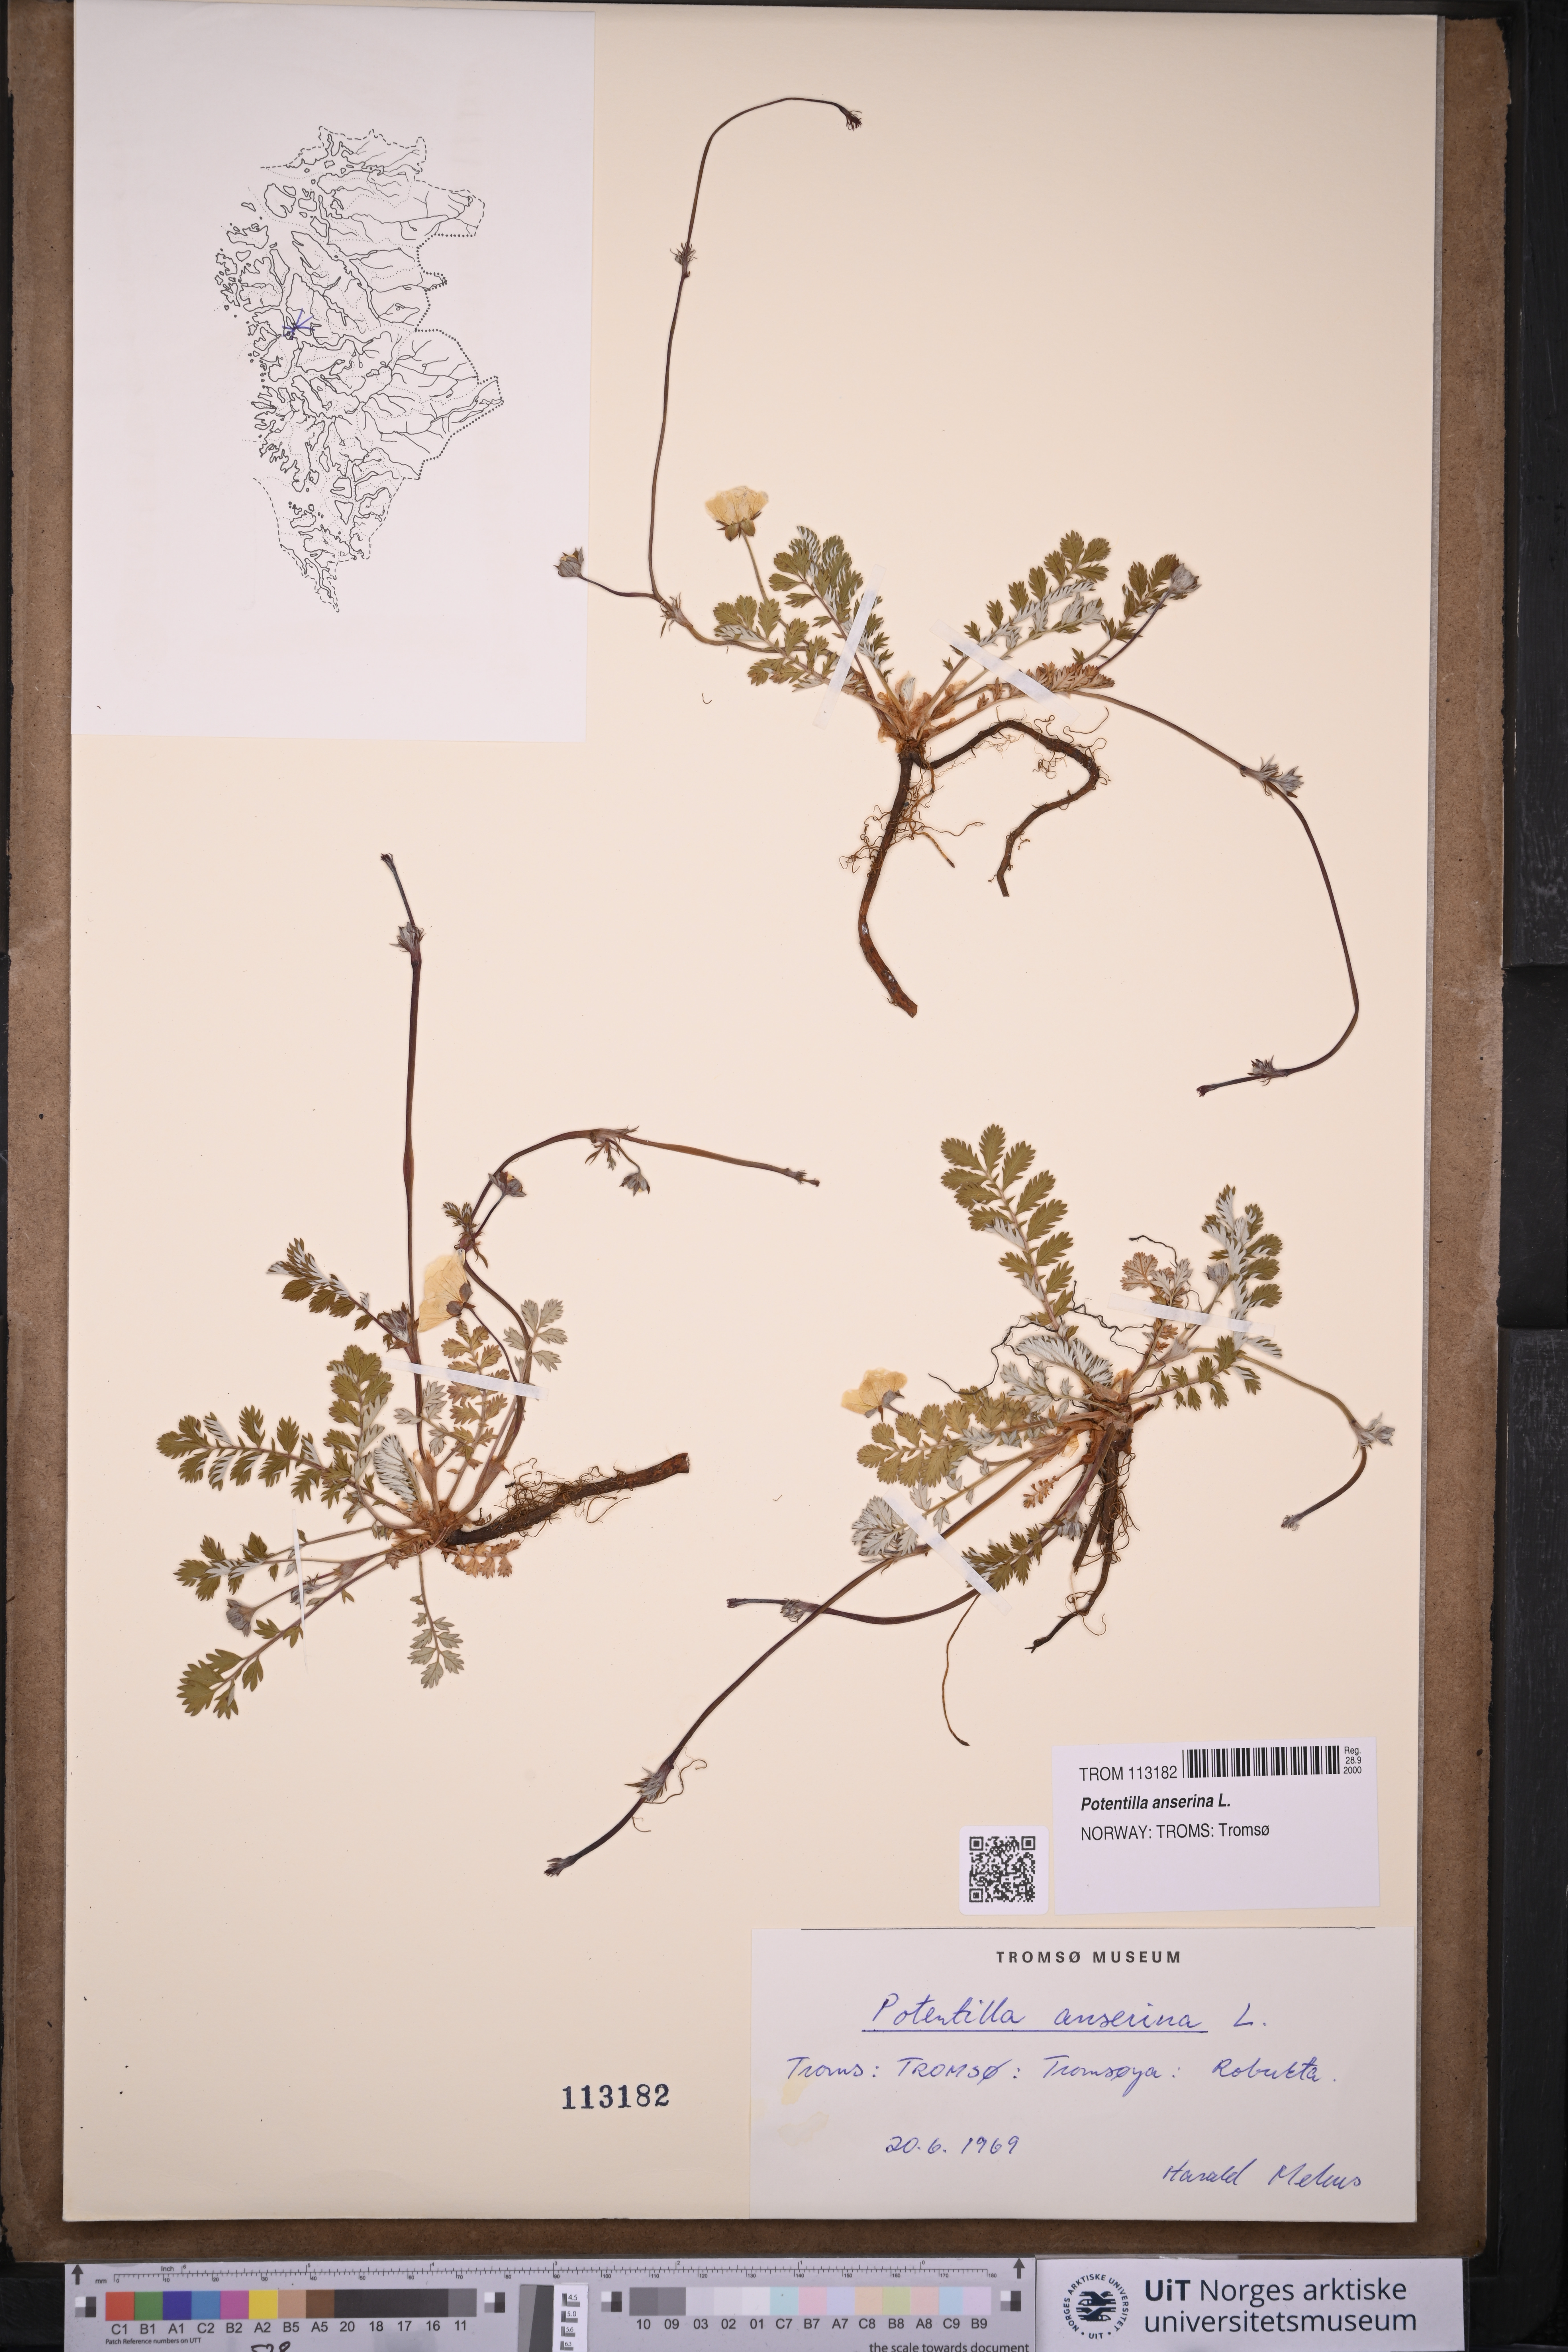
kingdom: Plantae
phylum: Tracheophyta
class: Magnoliopsida
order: Rosales
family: Rosaceae
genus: Argentina
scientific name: Argentina anserina
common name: Common silverweed
